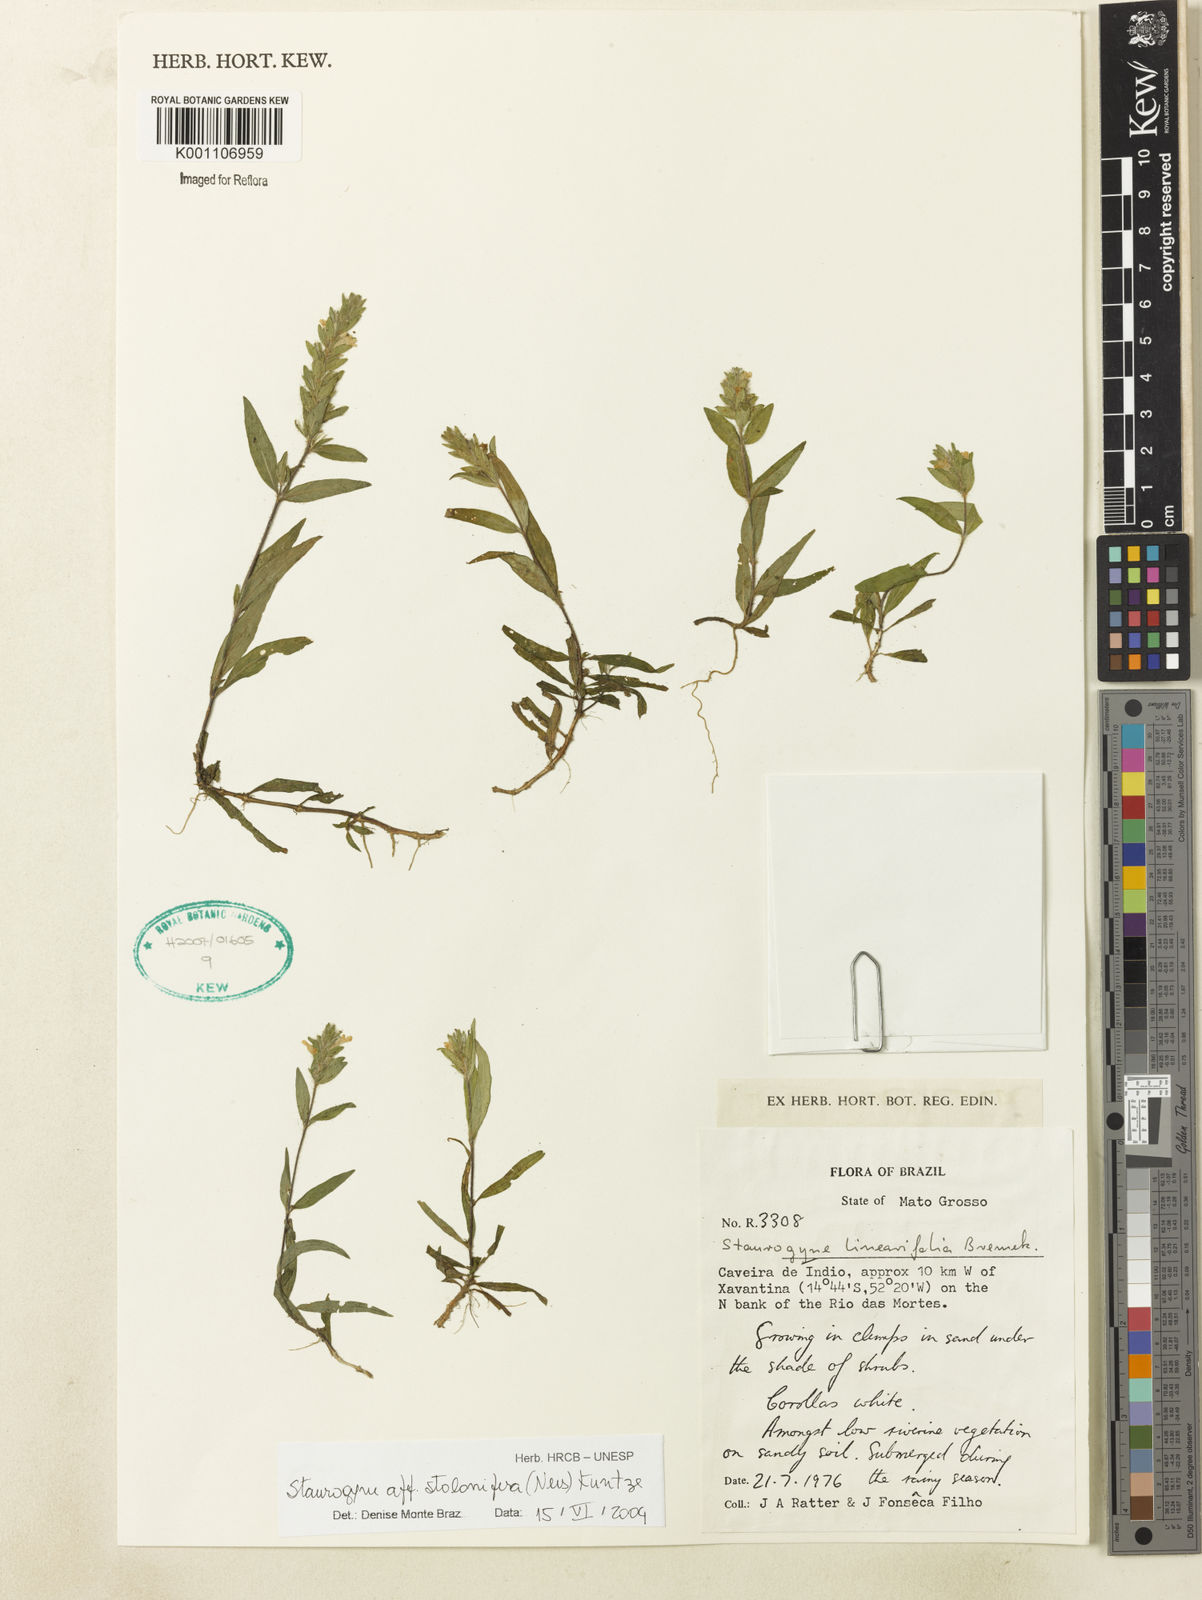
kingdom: Plantae
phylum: Tracheophyta
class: Magnoliopsida
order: Lamiales
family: Acanthaceae
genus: Staurogyne
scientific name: Staurogyne stolonifera
